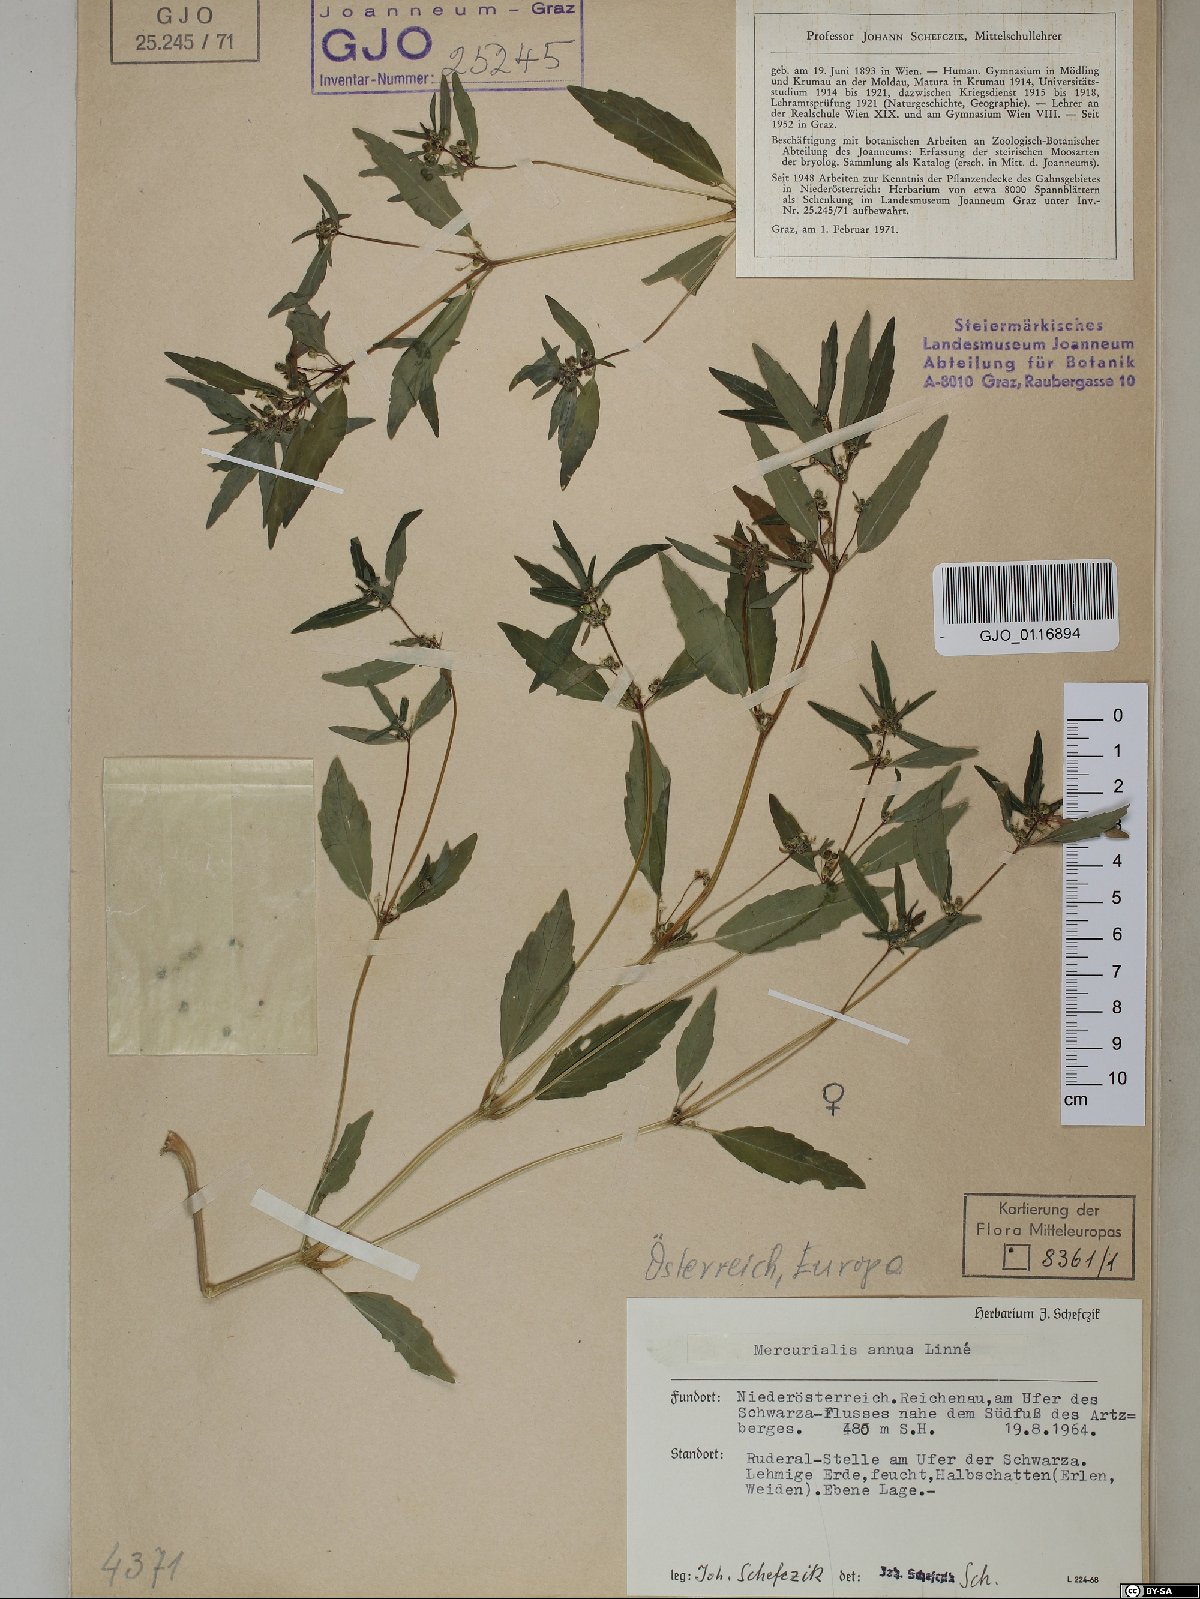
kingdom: Plantae
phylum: Tracheophyta
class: Magnoliopsida
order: Malpighiales
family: Euphorbiaceae
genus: Mercurialis
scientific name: Mercurialis annua
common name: Annual mercury
